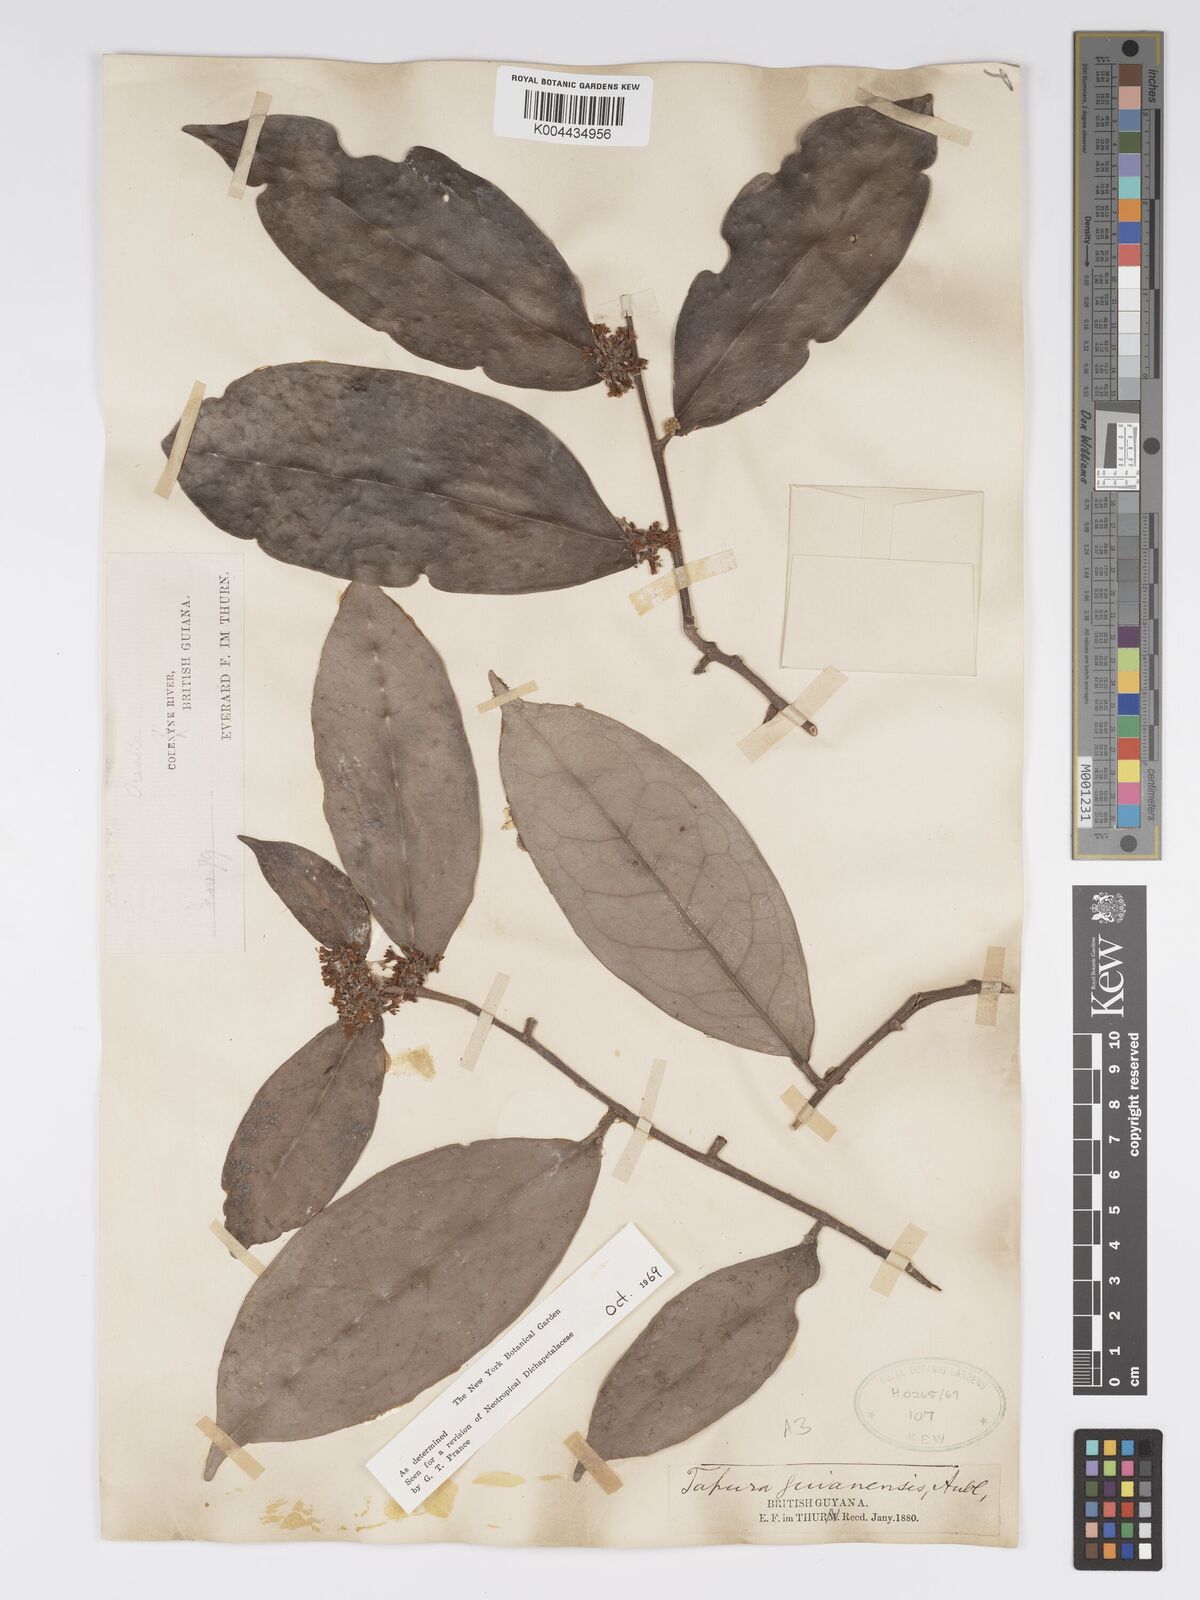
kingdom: Plantae
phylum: Tracheophyta
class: Magnoliopsida
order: Malpighiales
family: Dichapetalaceae
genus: Tapura
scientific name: Tapura guianensis
